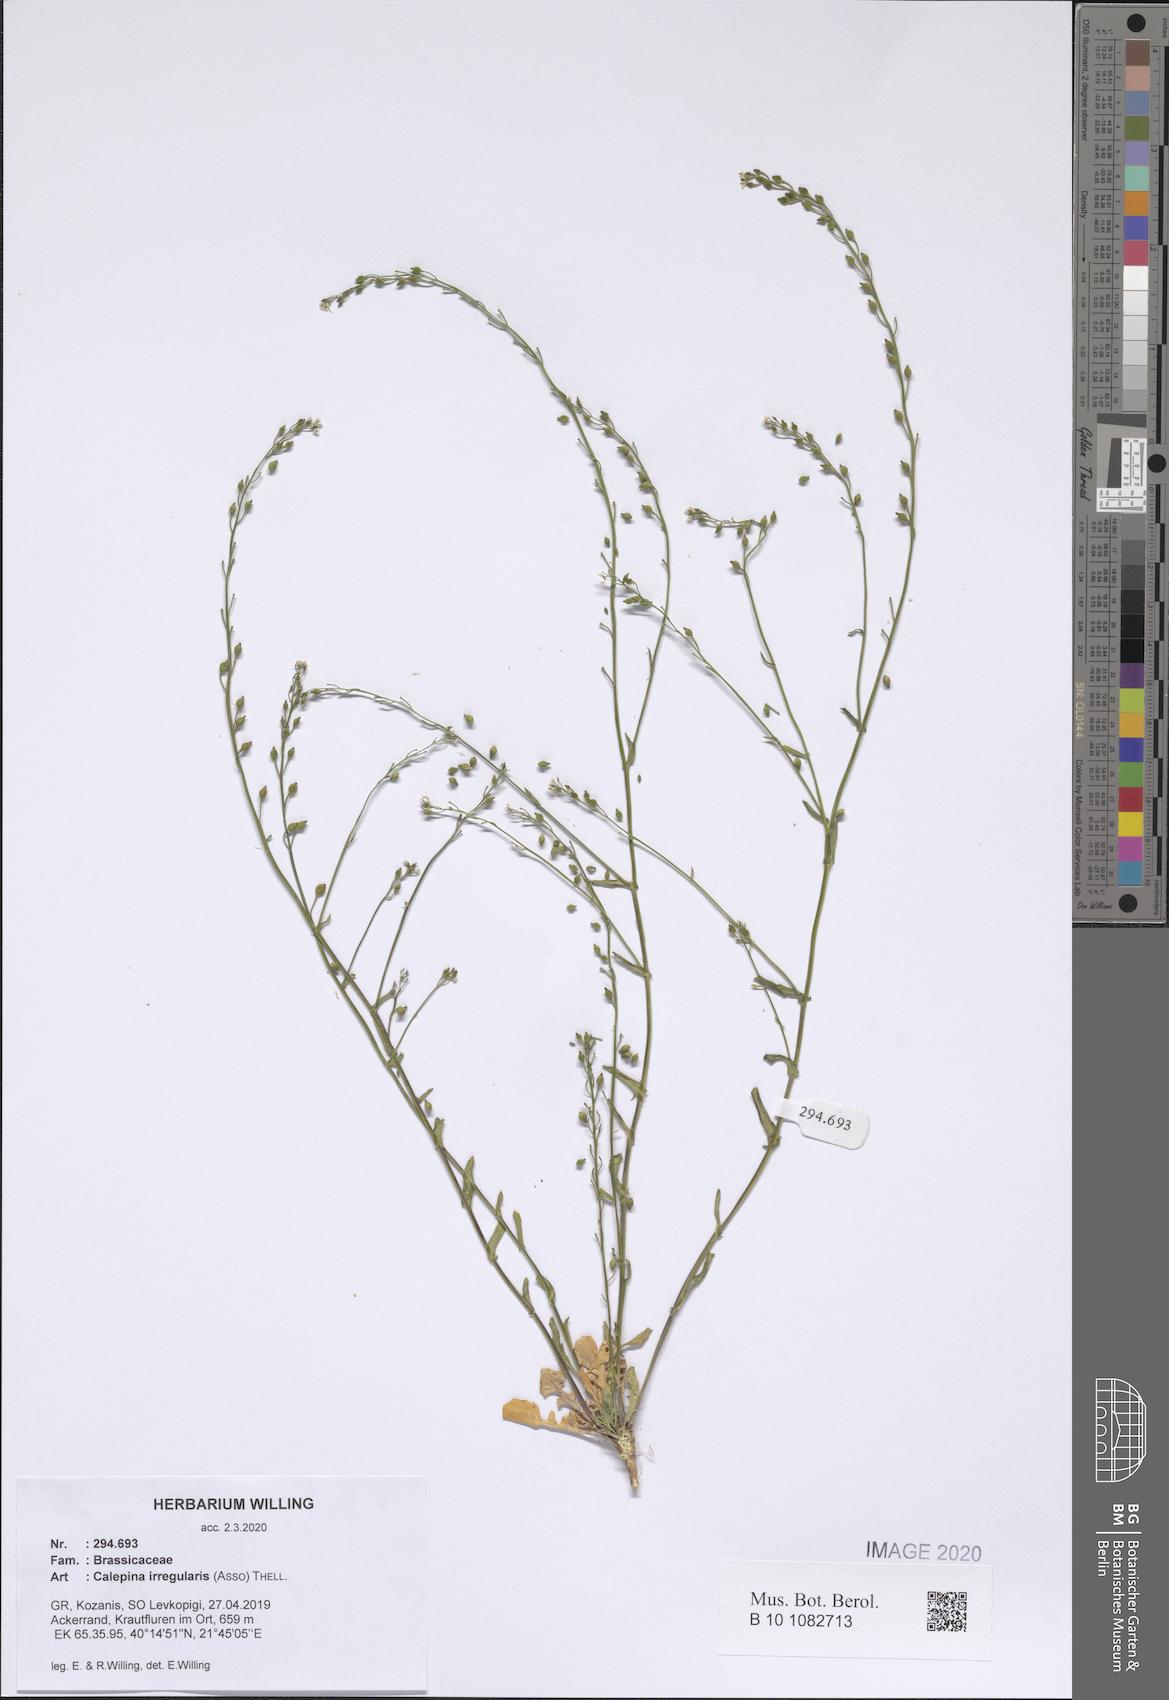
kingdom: Plantae
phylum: Tracheophyta
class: Magnoliopsida
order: Brassicales
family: Brassicaceae
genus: Calepina
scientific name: Calepina irregularis
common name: White ballmustard
